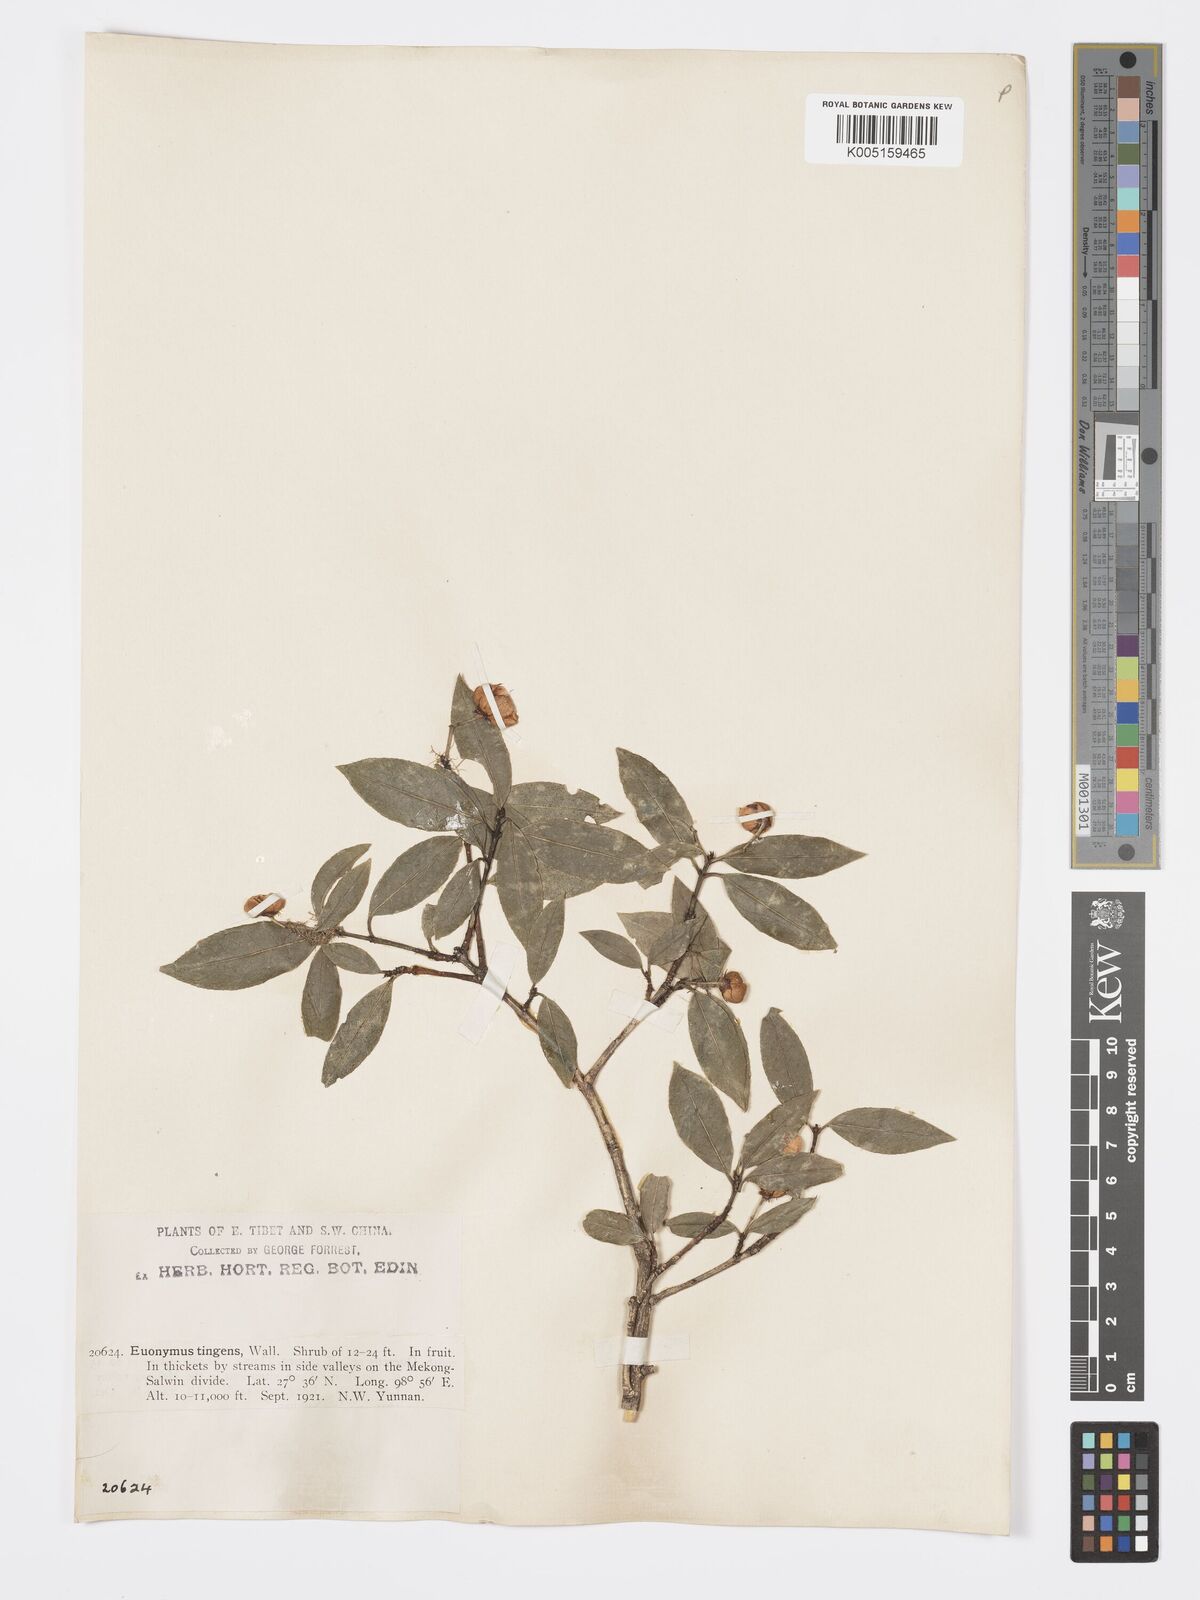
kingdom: Plantae
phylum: Tracheophyta
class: Magnoliopsida
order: Celastrales
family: Celastraceae
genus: Euonymus
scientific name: Euonymus tingens
